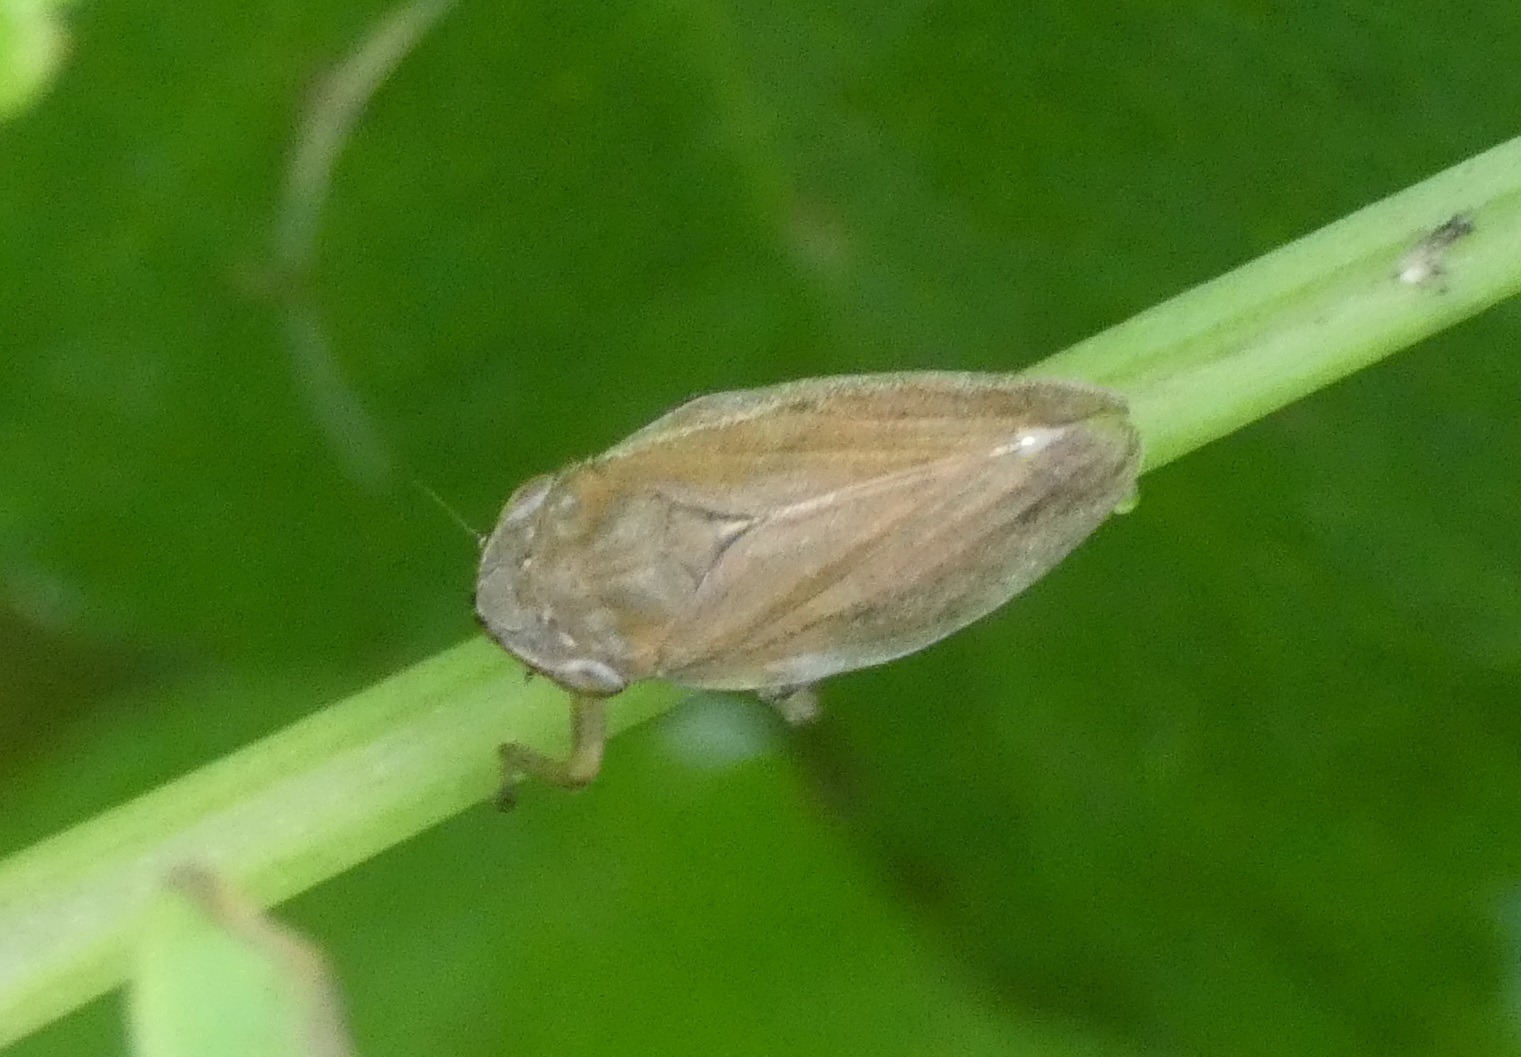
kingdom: Animalia
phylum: Arthropoda
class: Insecta
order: Hemiptera
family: Aphrophoridae
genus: Philaenus
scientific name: Philaenus spumarius
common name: Almindelig skumcikade
